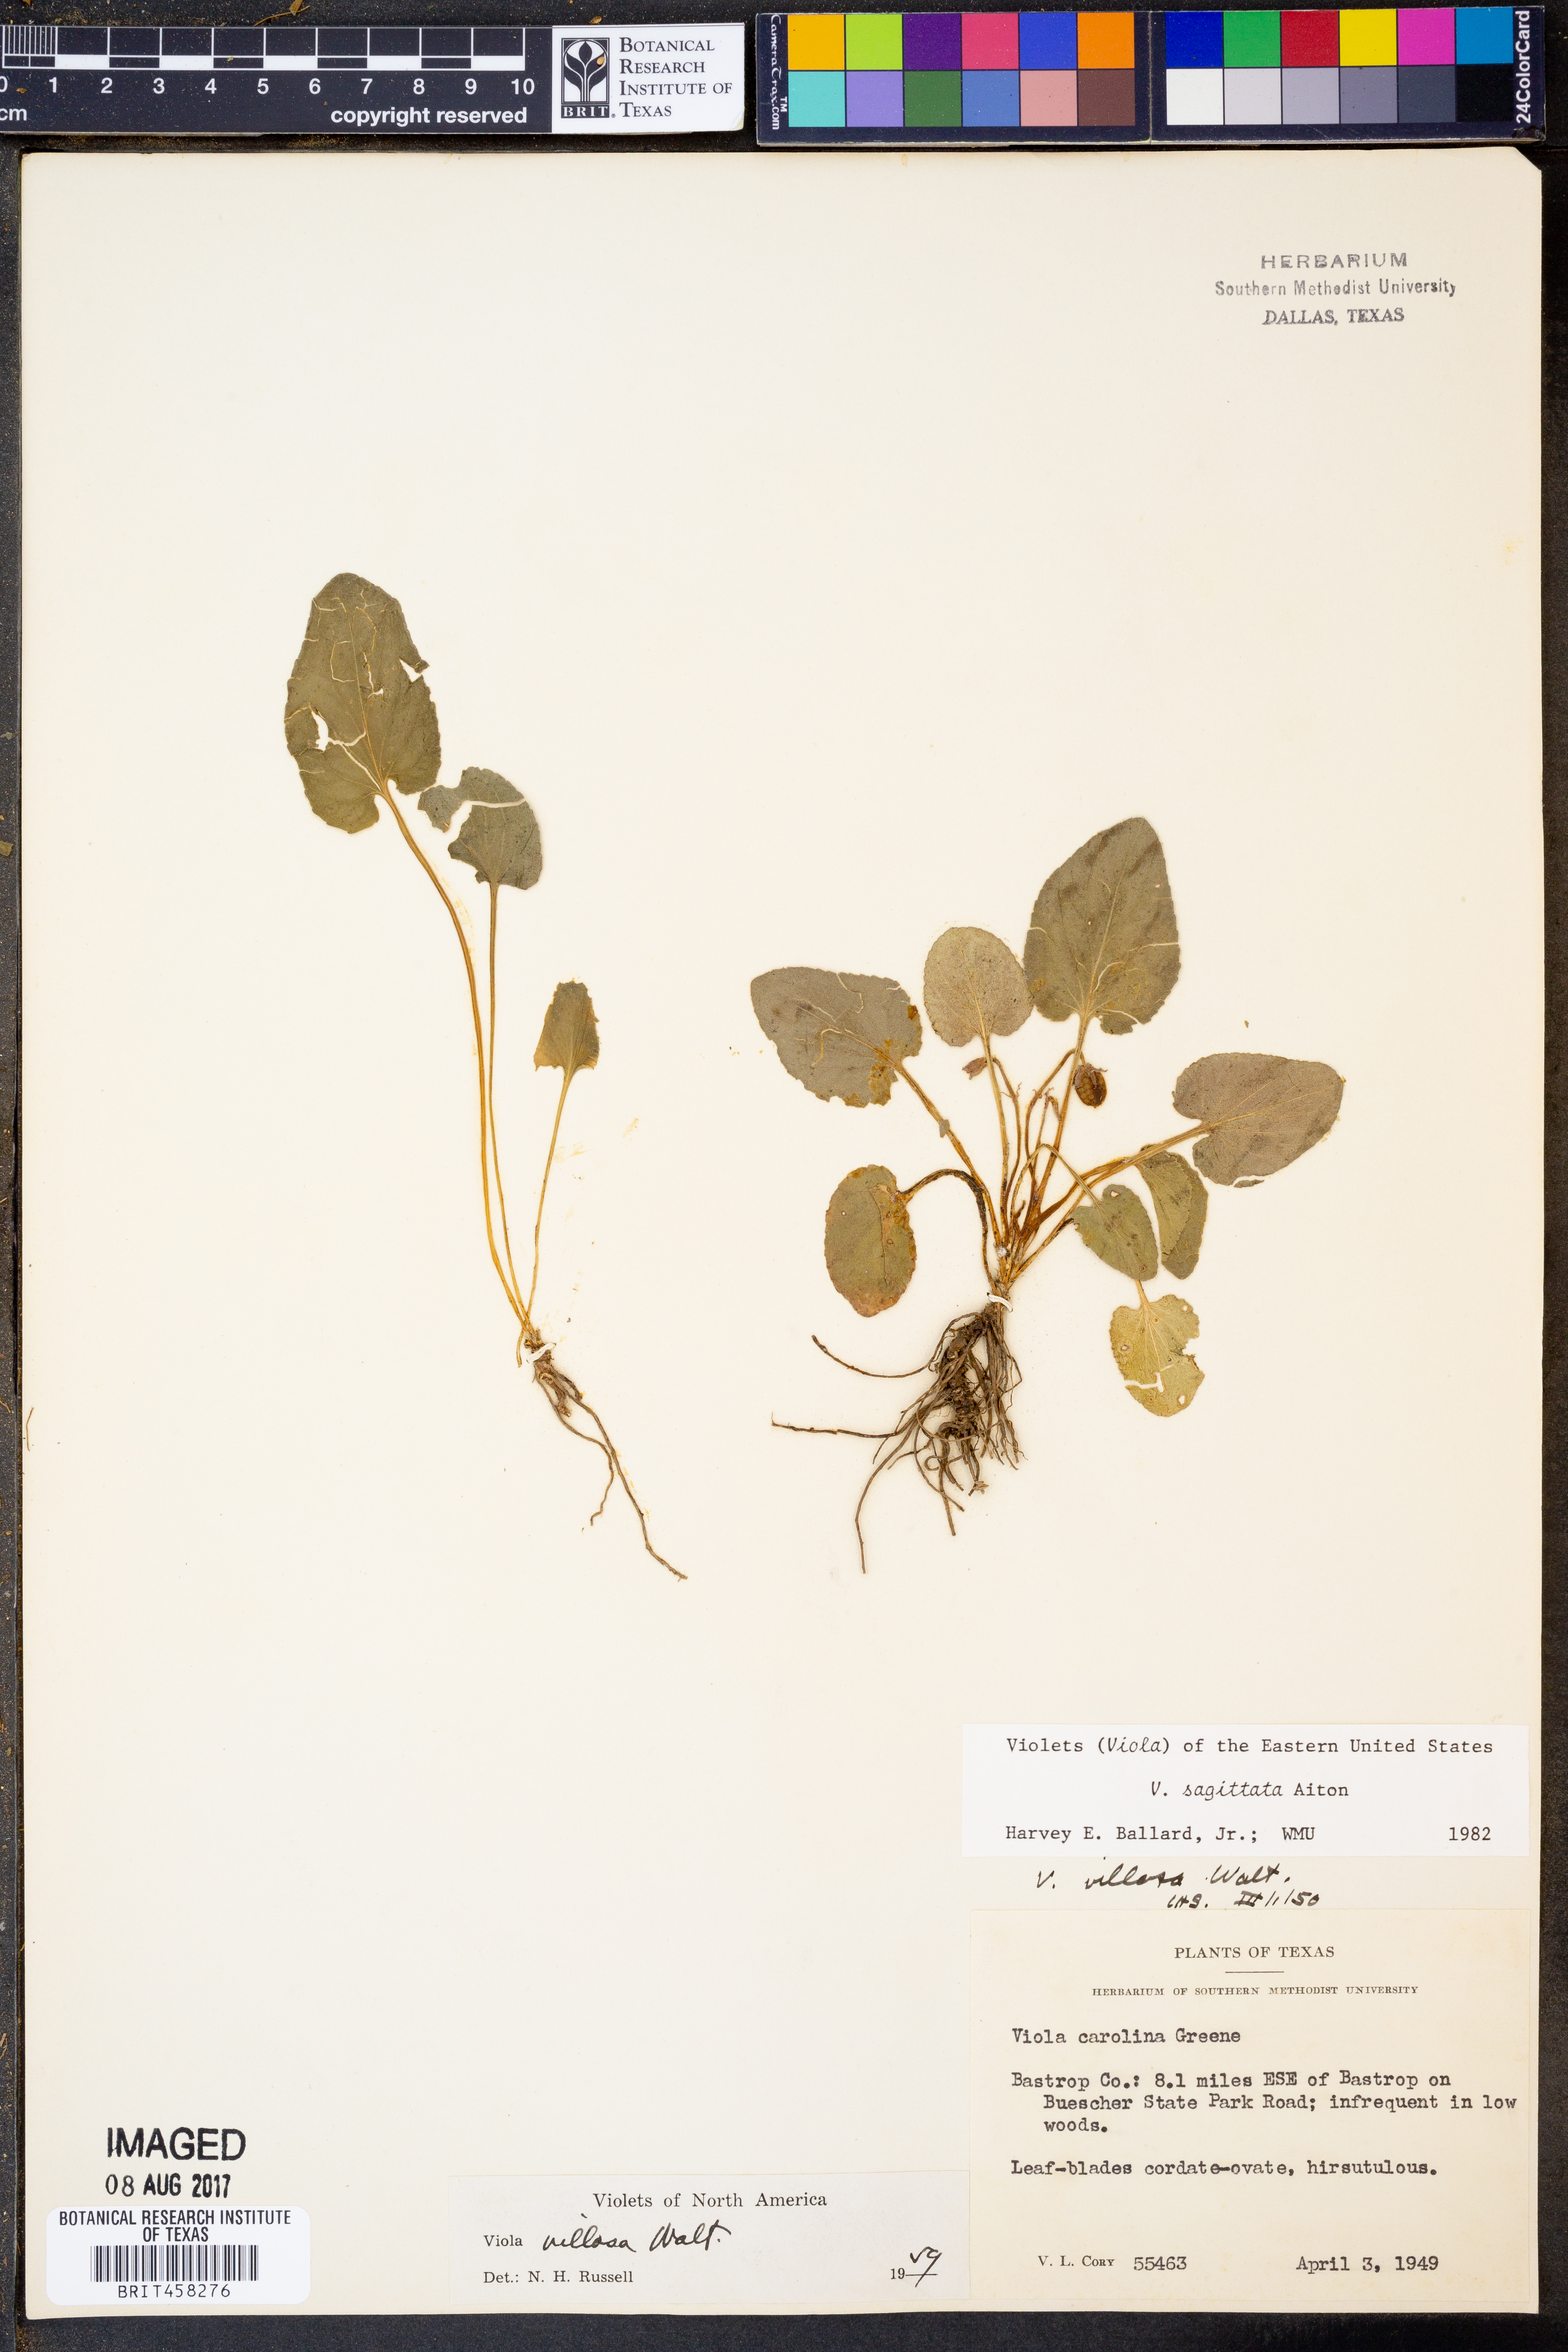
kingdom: Plantae
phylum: Tracheophyta
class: Magnoliopsida
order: Malpighiales
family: Violaceae
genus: Viola
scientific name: Viola sagittata
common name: Arrowhead violet
